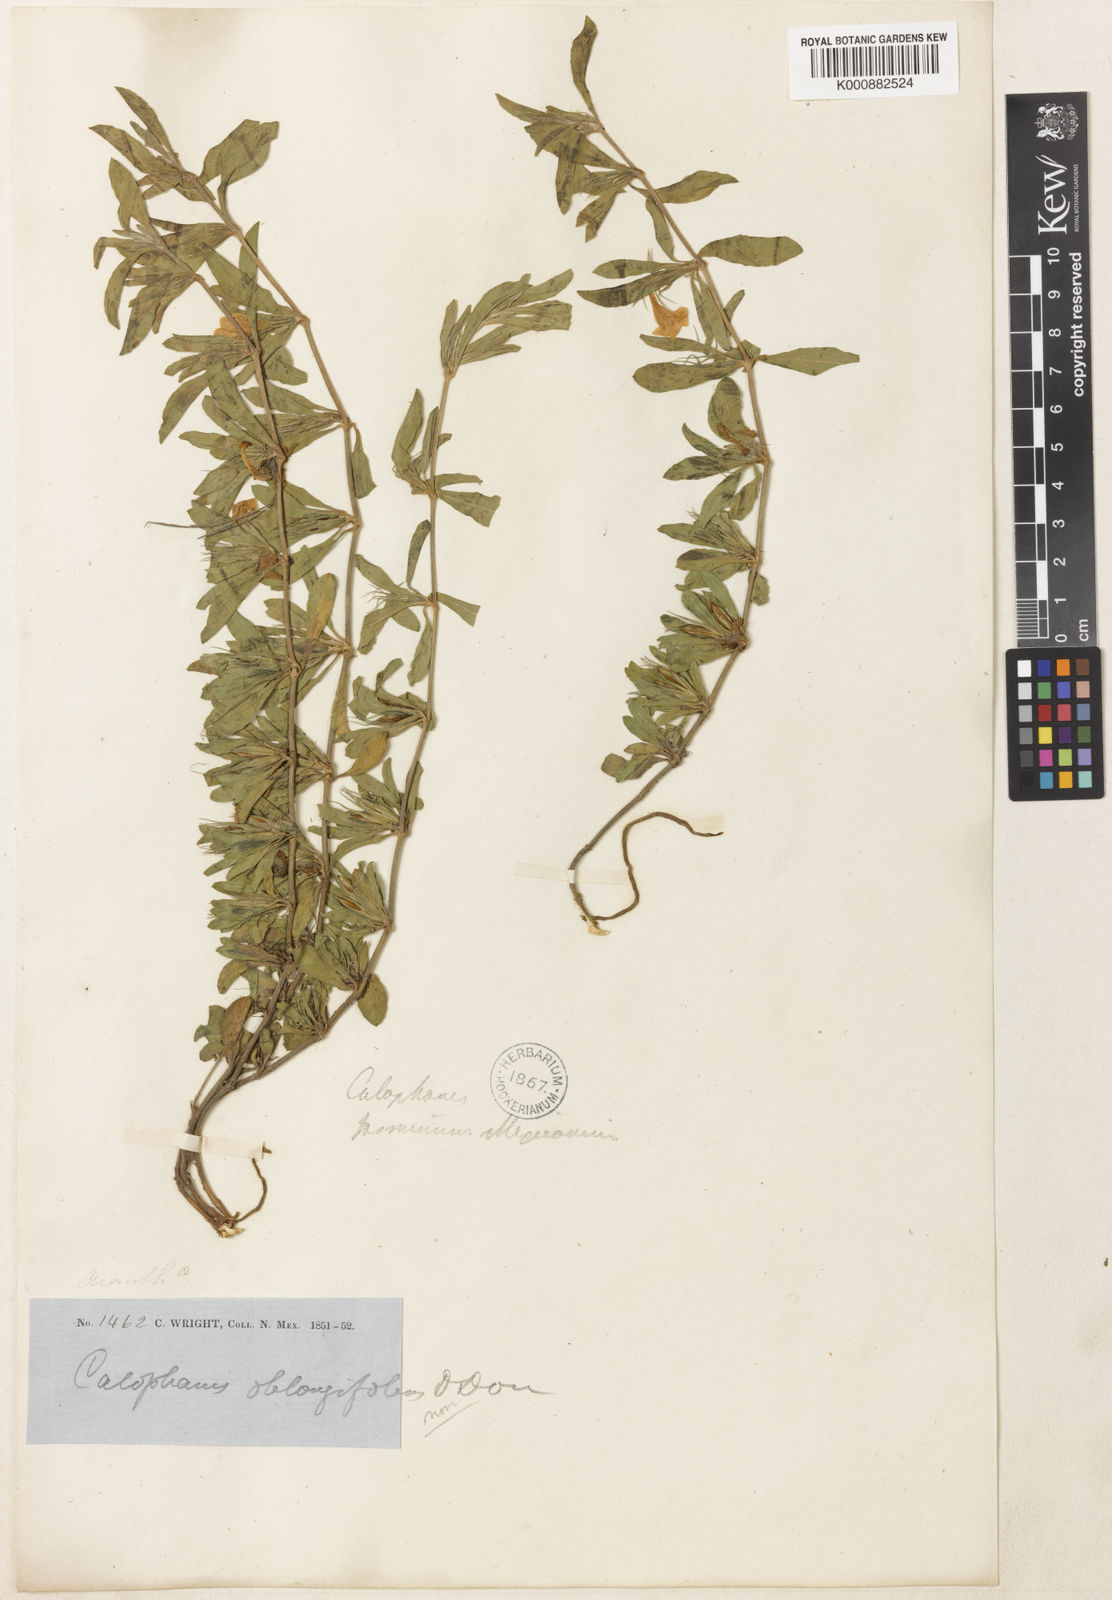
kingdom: Plantae
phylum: Tracheophyta
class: Magnoliopsida
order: Lamiales
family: Acanthaceae
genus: Dyschoriste
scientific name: Dyschoriste decumbens
